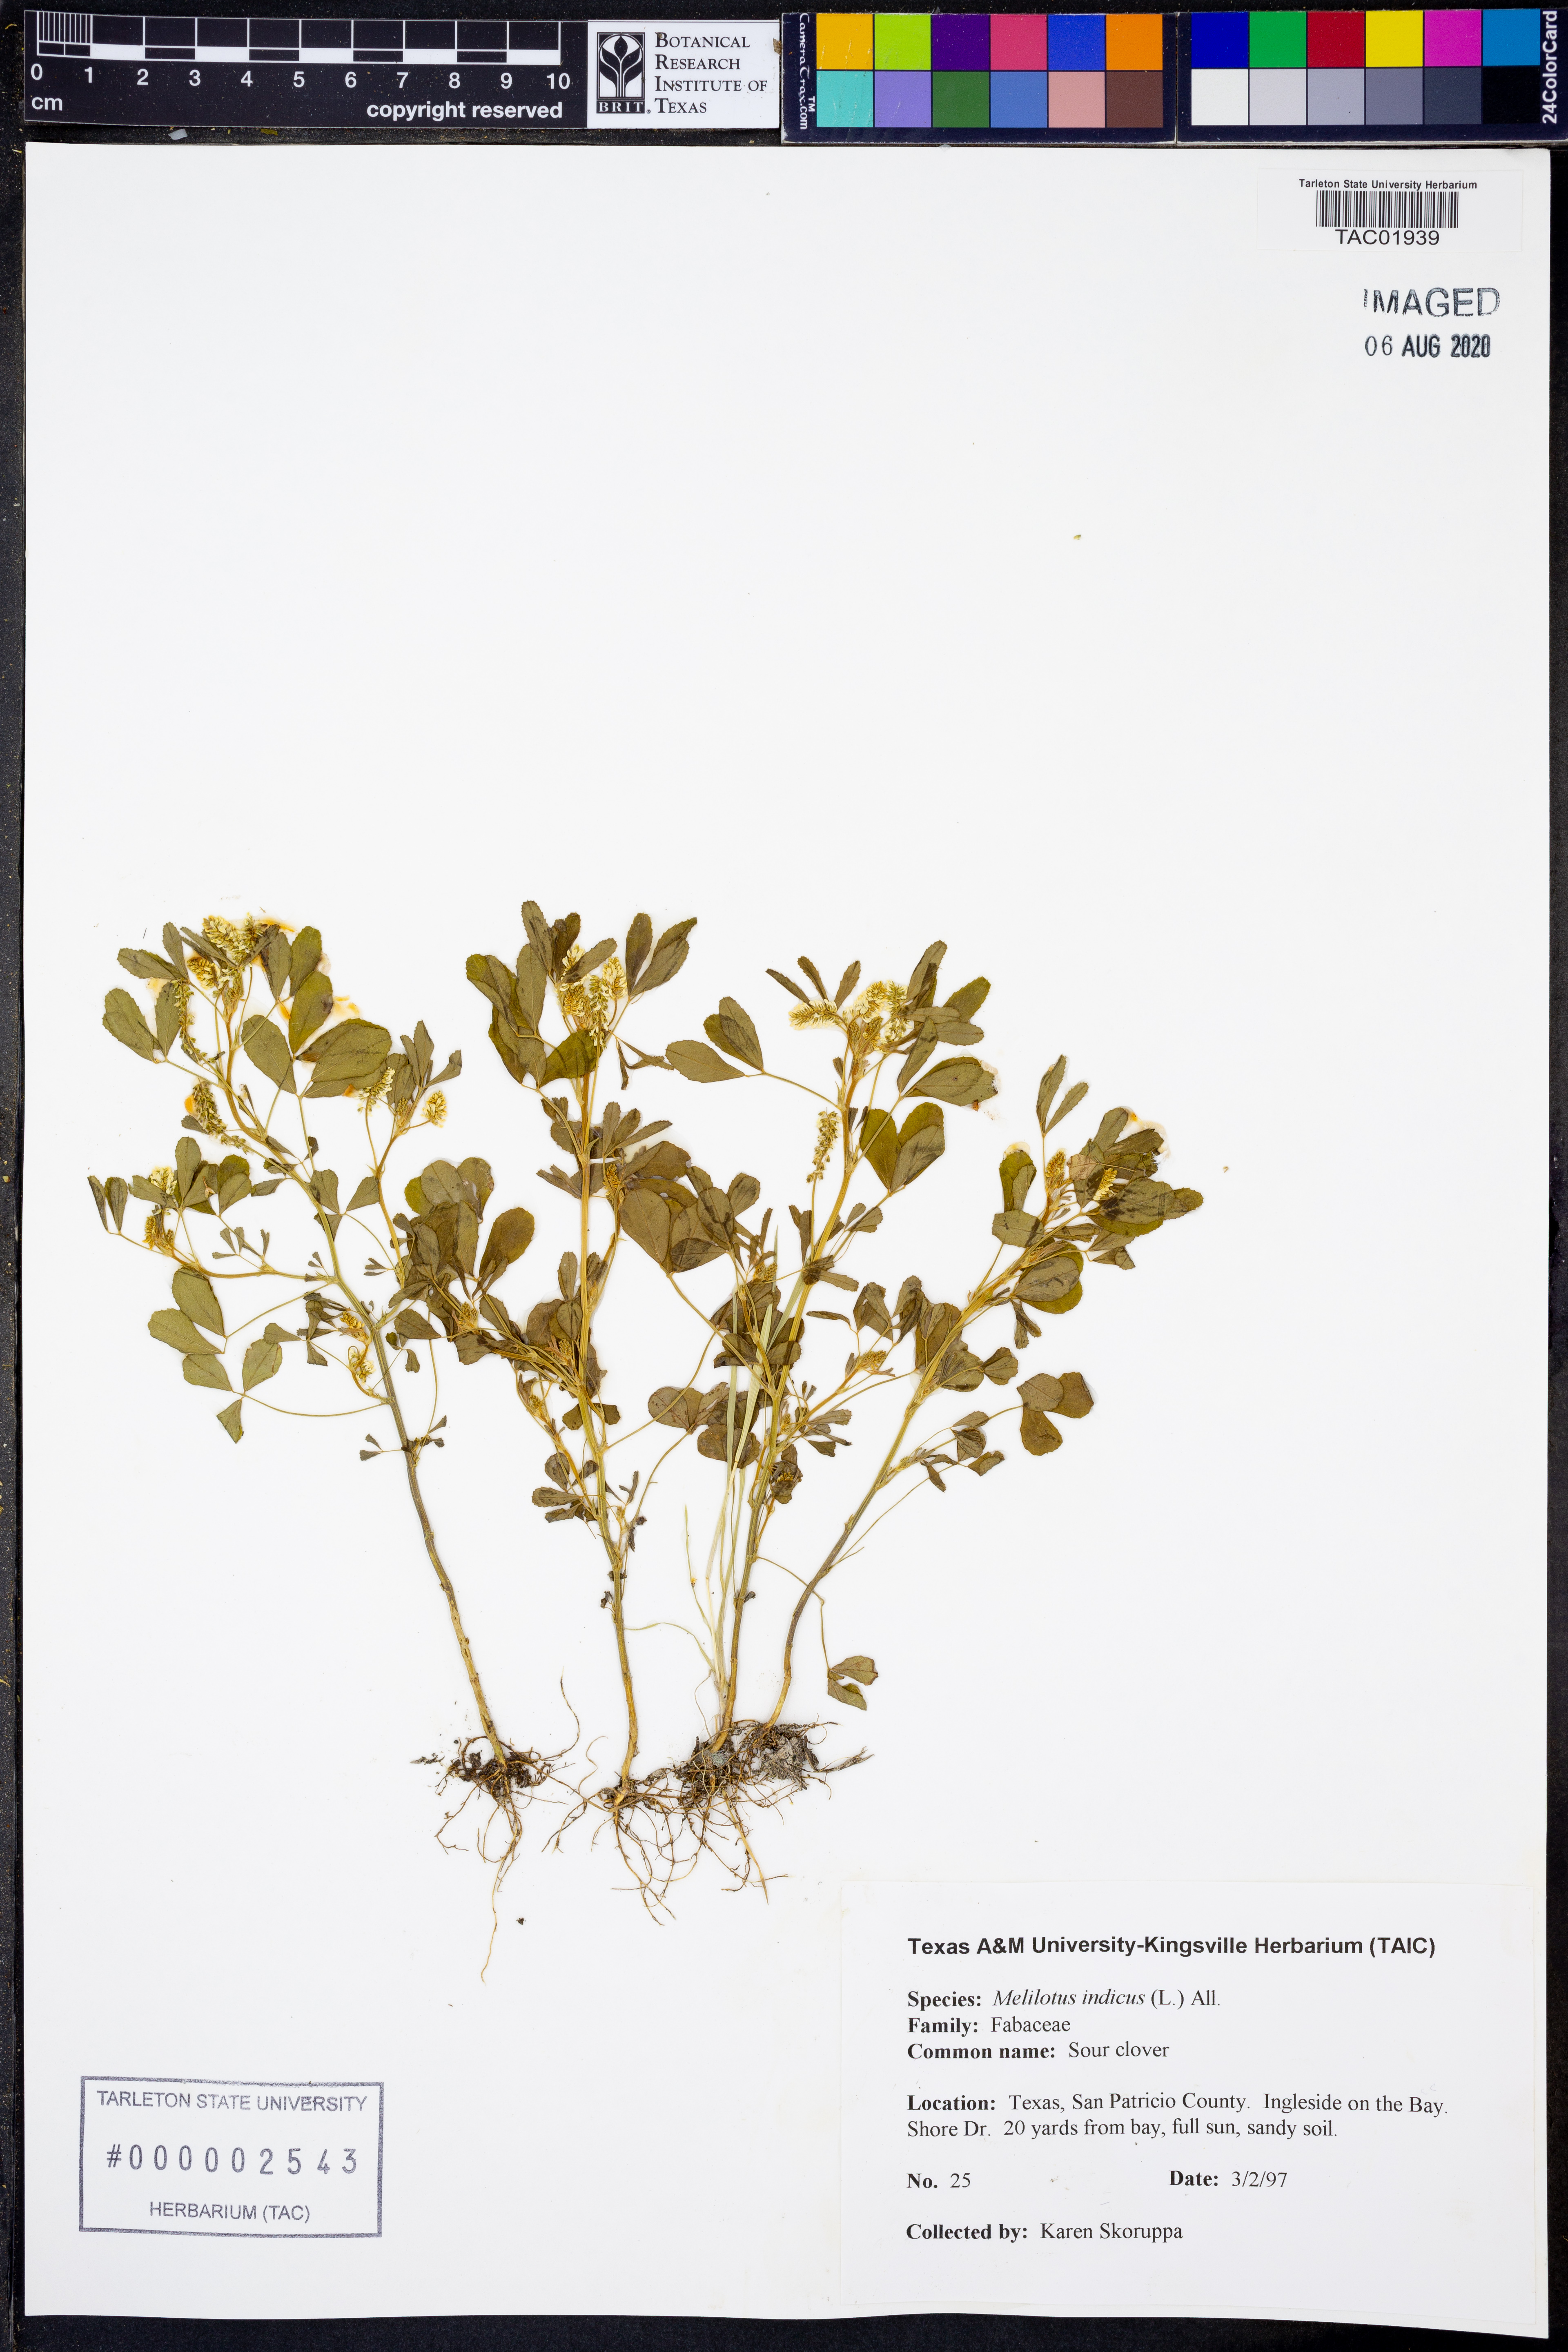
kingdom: Plantae
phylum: Tracheophyta
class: Magnoliopsida
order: Fabales
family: Fabaceae
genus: Melilotus
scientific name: Melilotus indicus
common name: Small melilot
